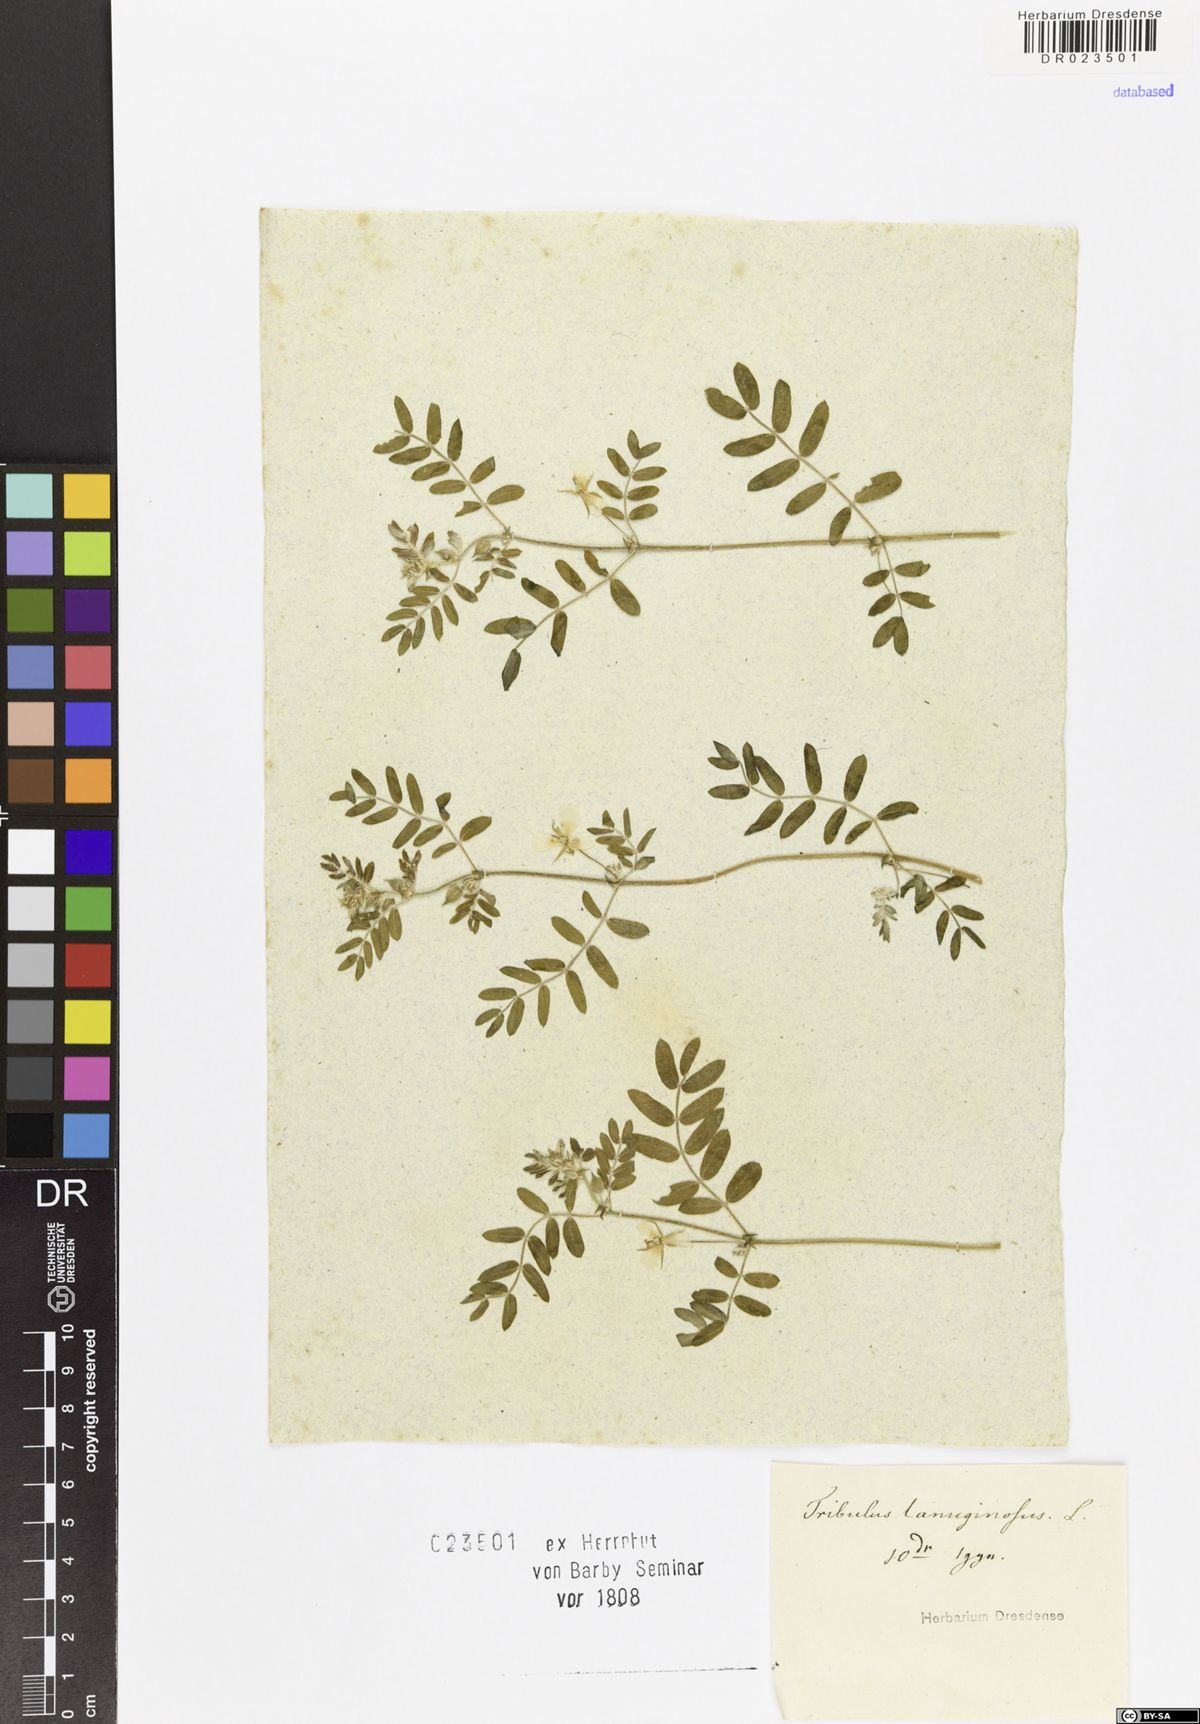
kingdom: Plantae
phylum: Tracheophyta
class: Magnoliopsida
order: Zygophyllales
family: Zygophyllaceae
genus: Tribulus
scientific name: Tribulus terrestris
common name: Puncturevine
